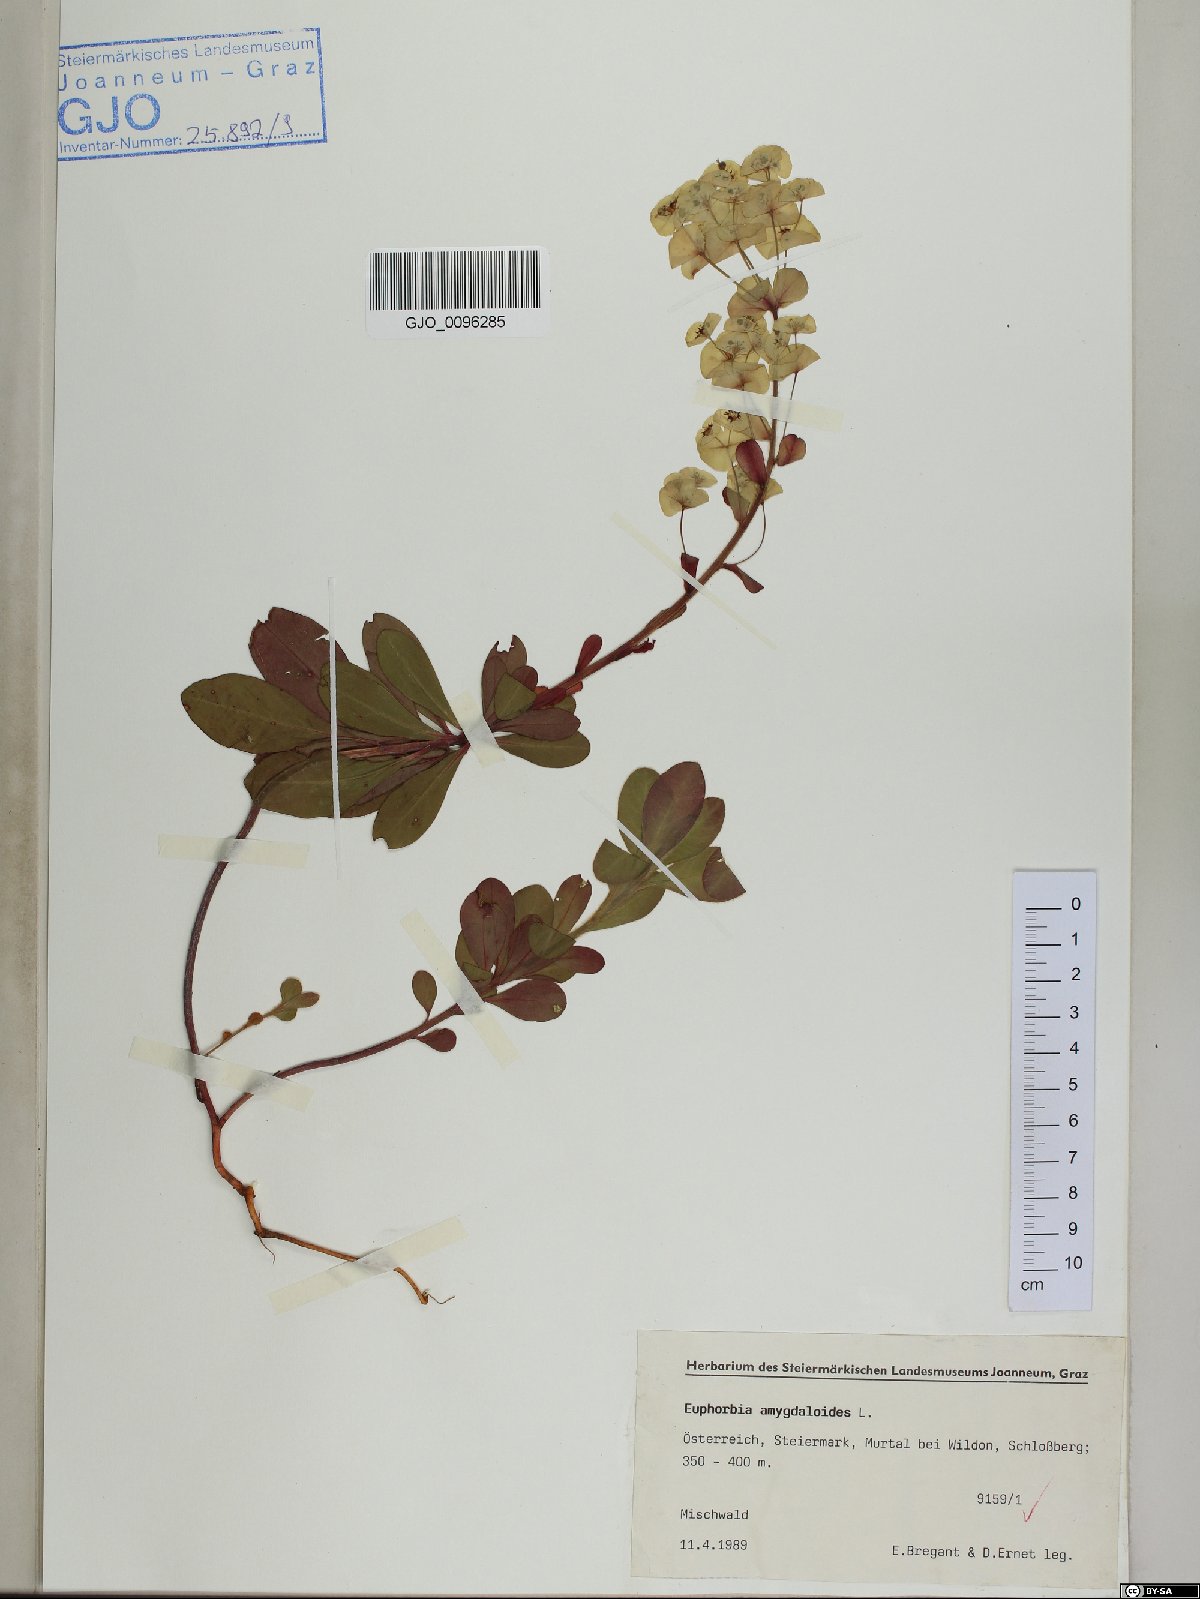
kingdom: Plantae
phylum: Tracheophyta
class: Magnoliopsida
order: Malpighiales
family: Euphorbiaceae
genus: Euphorbia
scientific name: Euphorbia amygdaloides
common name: Wood spurge
